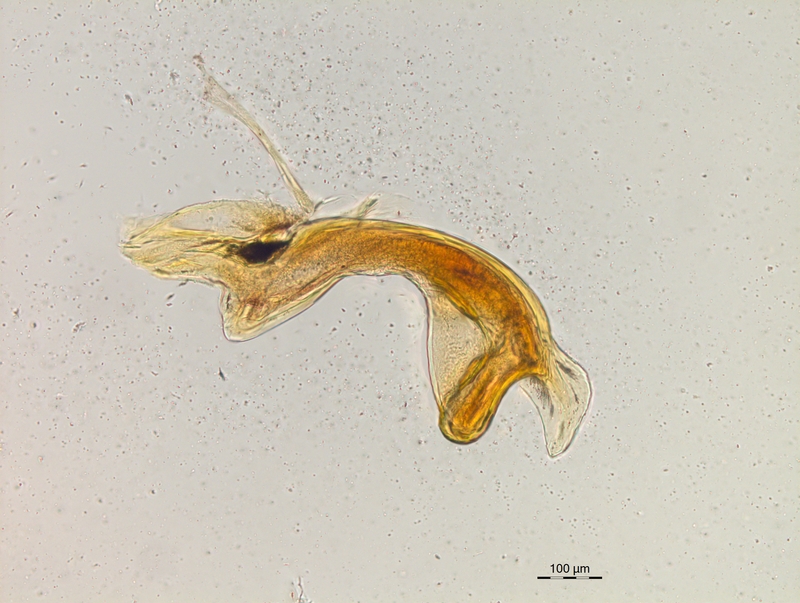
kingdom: Animalia
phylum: Arthropoda
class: Diplopoda
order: Chordeumatida
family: Craspedosomatidae
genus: Craspedosoma
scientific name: Craspedosoma rawlinsii
